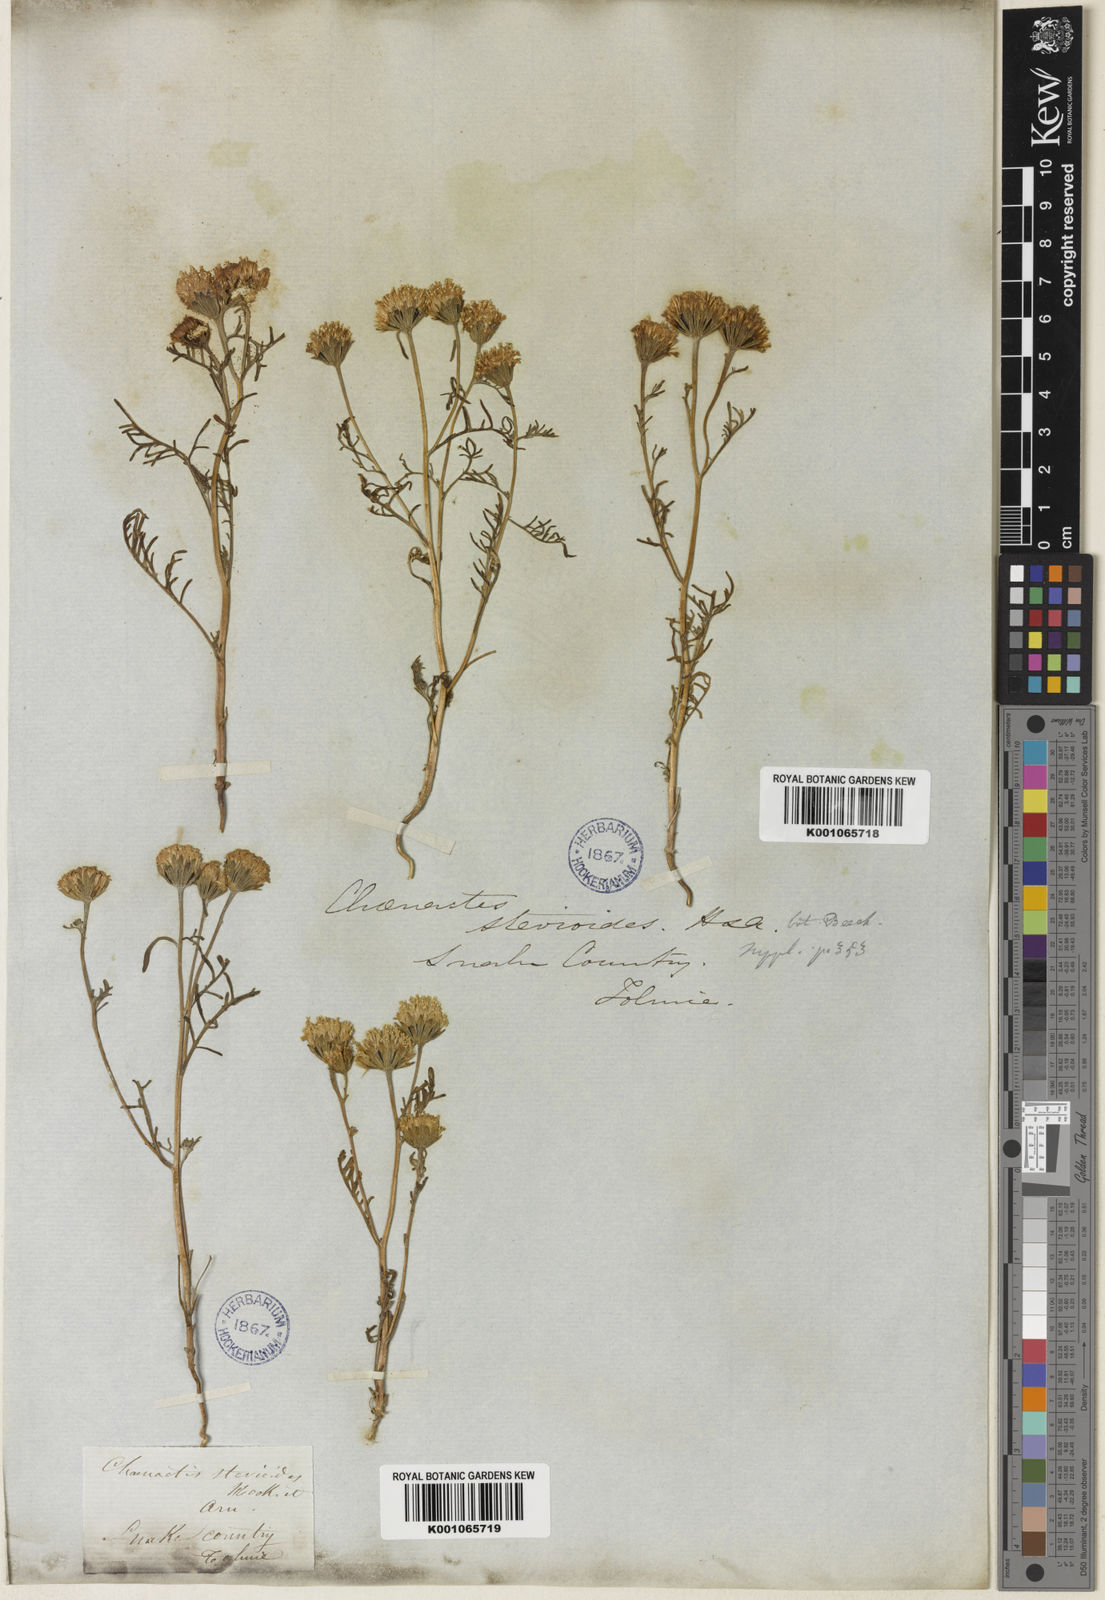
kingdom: Plantae
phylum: Tracheophyta
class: Magnoliopsida
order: Asterales
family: Asteraceae
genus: Chaenactis
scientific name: Chaenactis stevioides
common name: Desert pincushion
